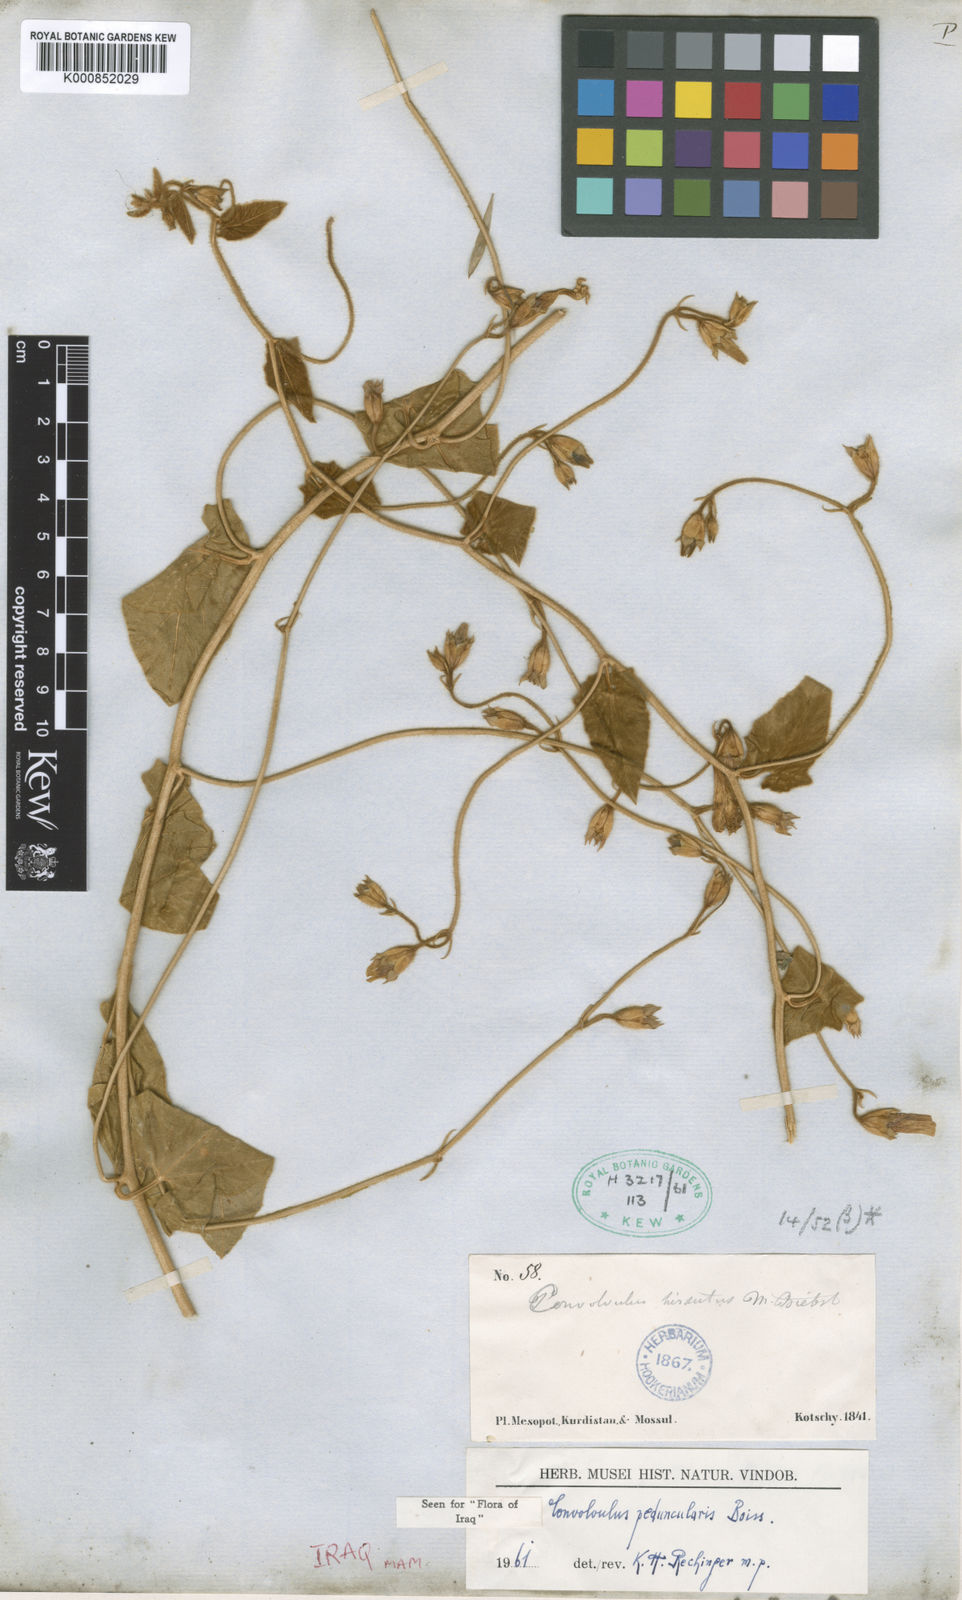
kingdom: Plantae
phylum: Tracheophyta
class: Magnoliopsida
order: Solanales
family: Convolvulaceae
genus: Convolvulus
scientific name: Convolvulus betonicifolius
